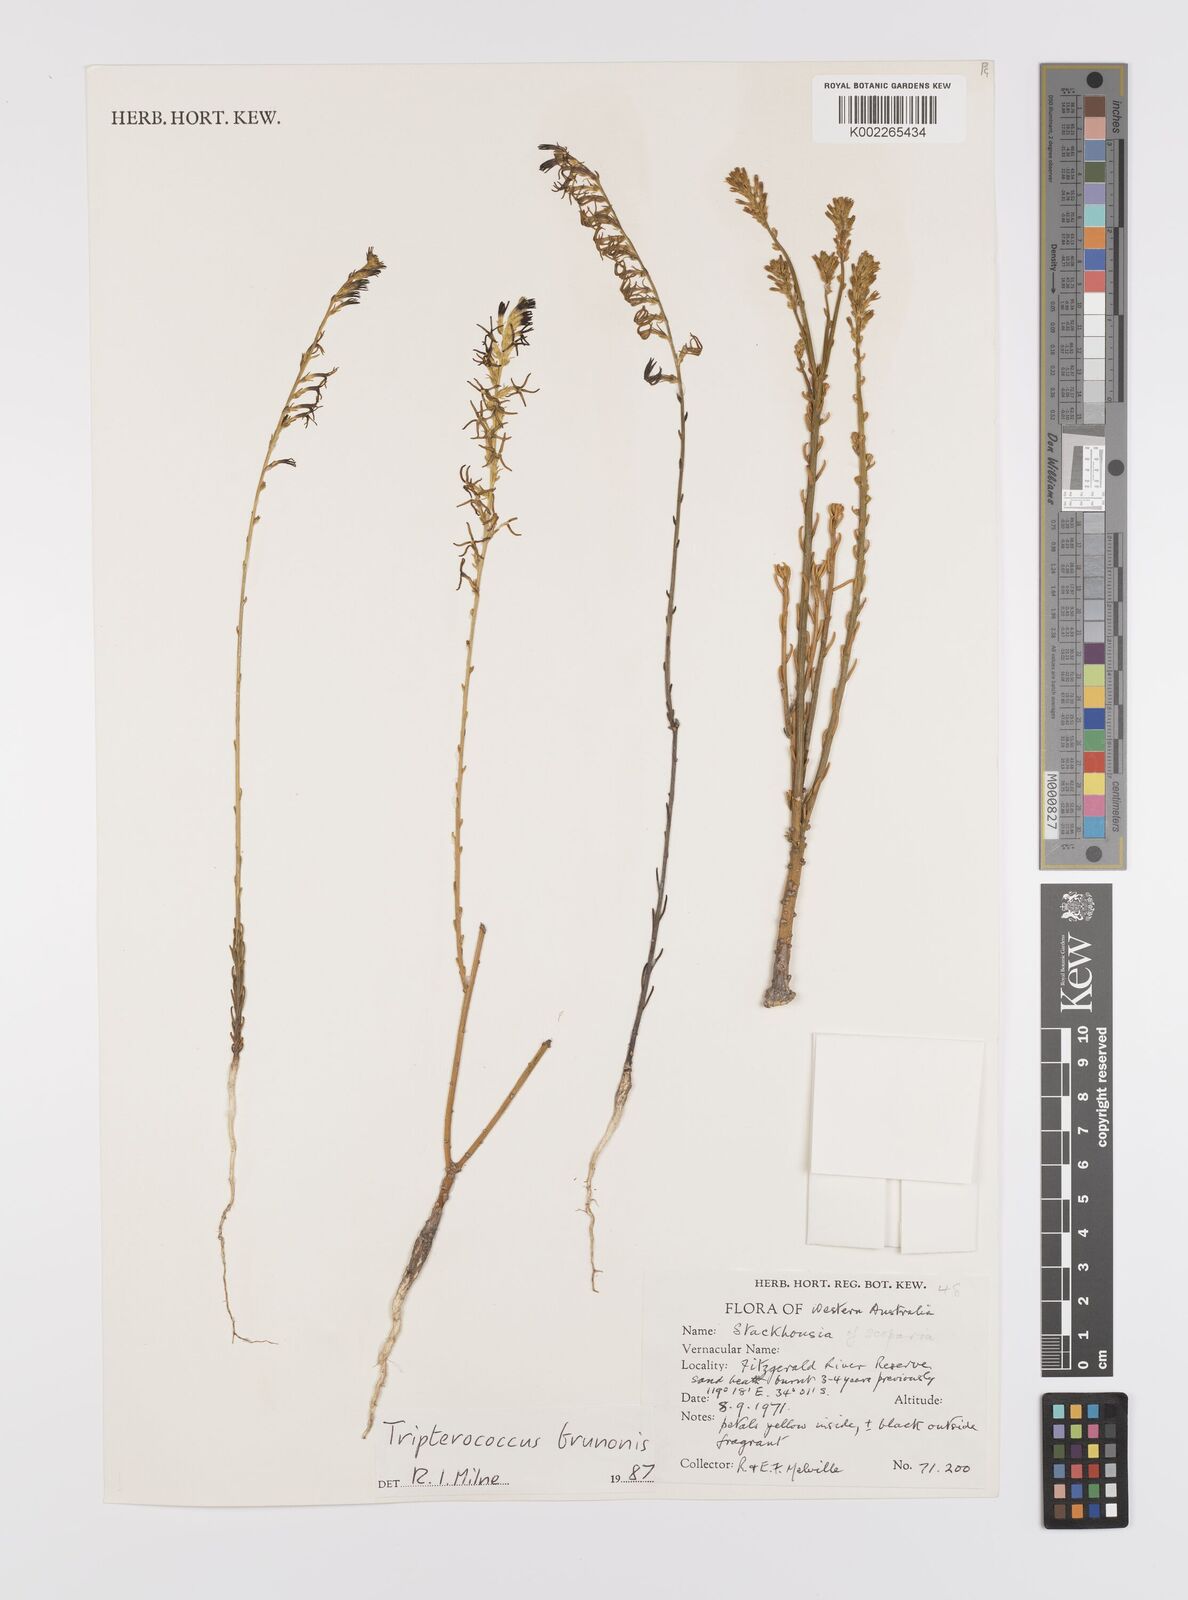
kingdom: Plantae
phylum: Tracheophyta
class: Magnoliopsida
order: Celastrales
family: Celastraceae
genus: Tripterococcus
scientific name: Tripterococcus brunonis
